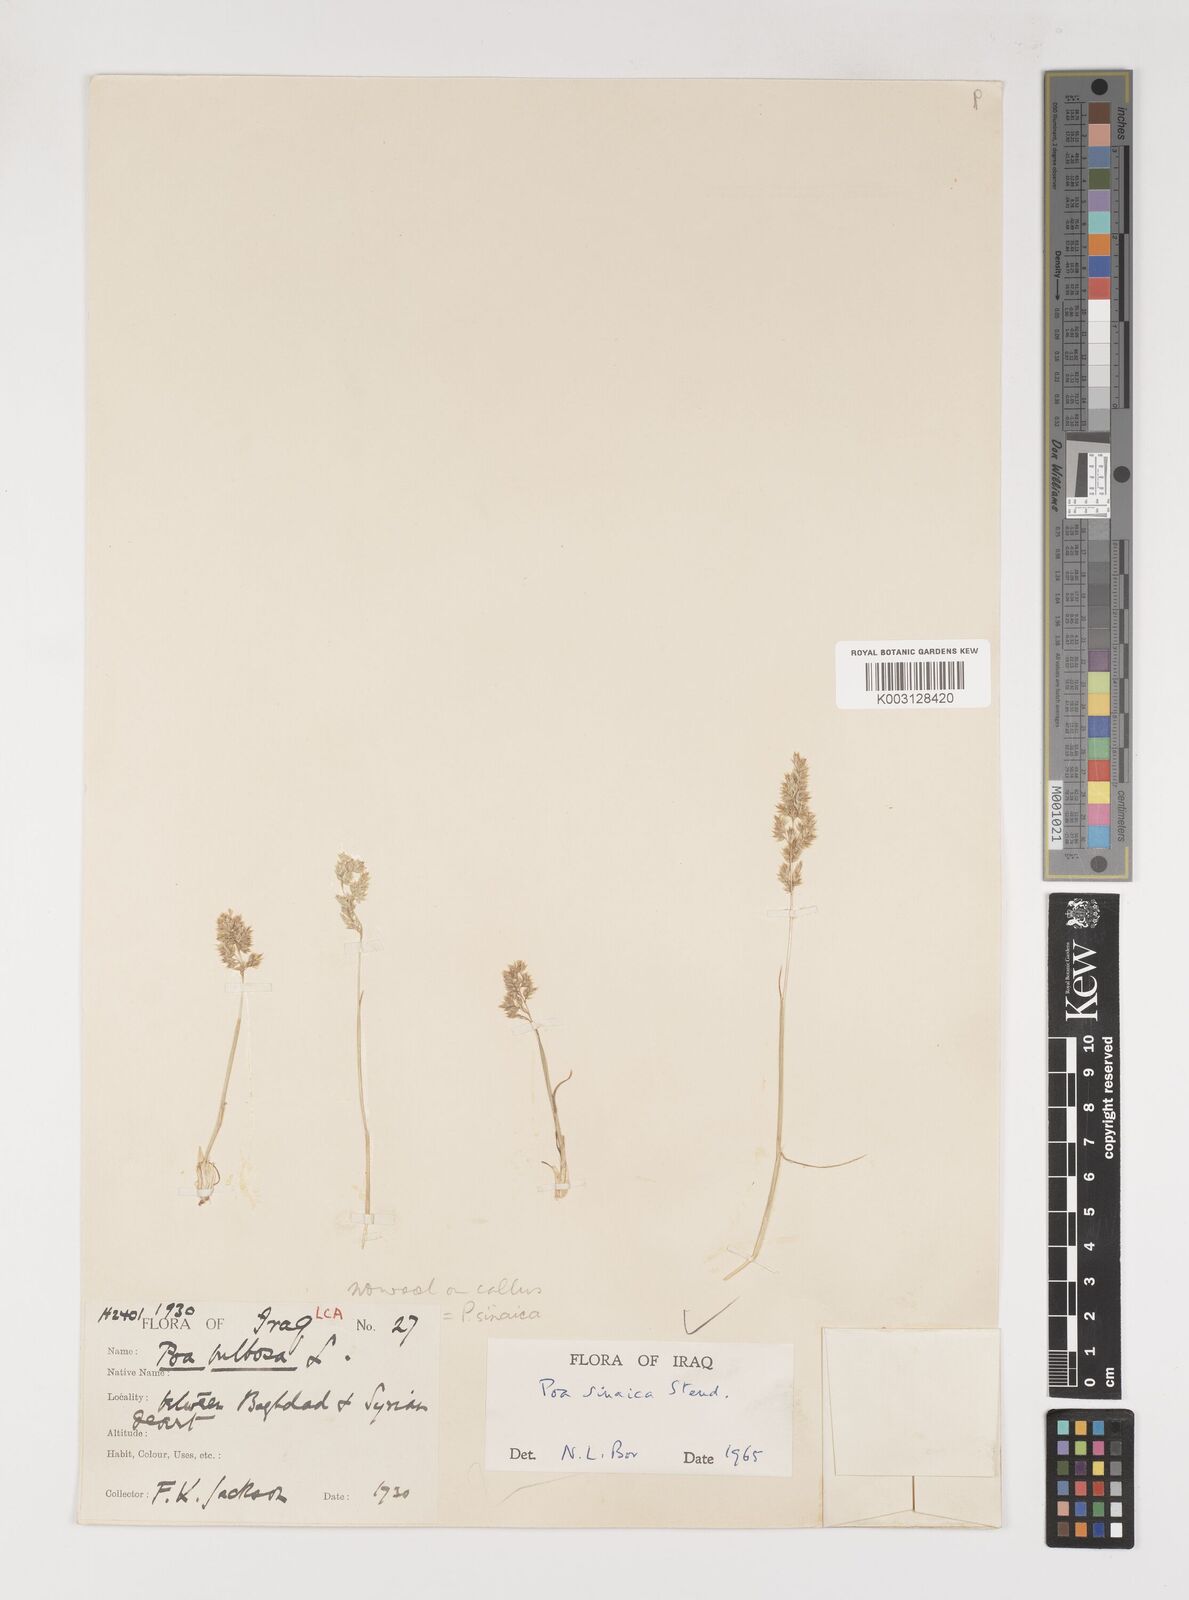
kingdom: Plantae
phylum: Tracheophyta
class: Liliopsida
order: Poales
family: Poaceae
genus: Poa
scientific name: Poa sinaica
